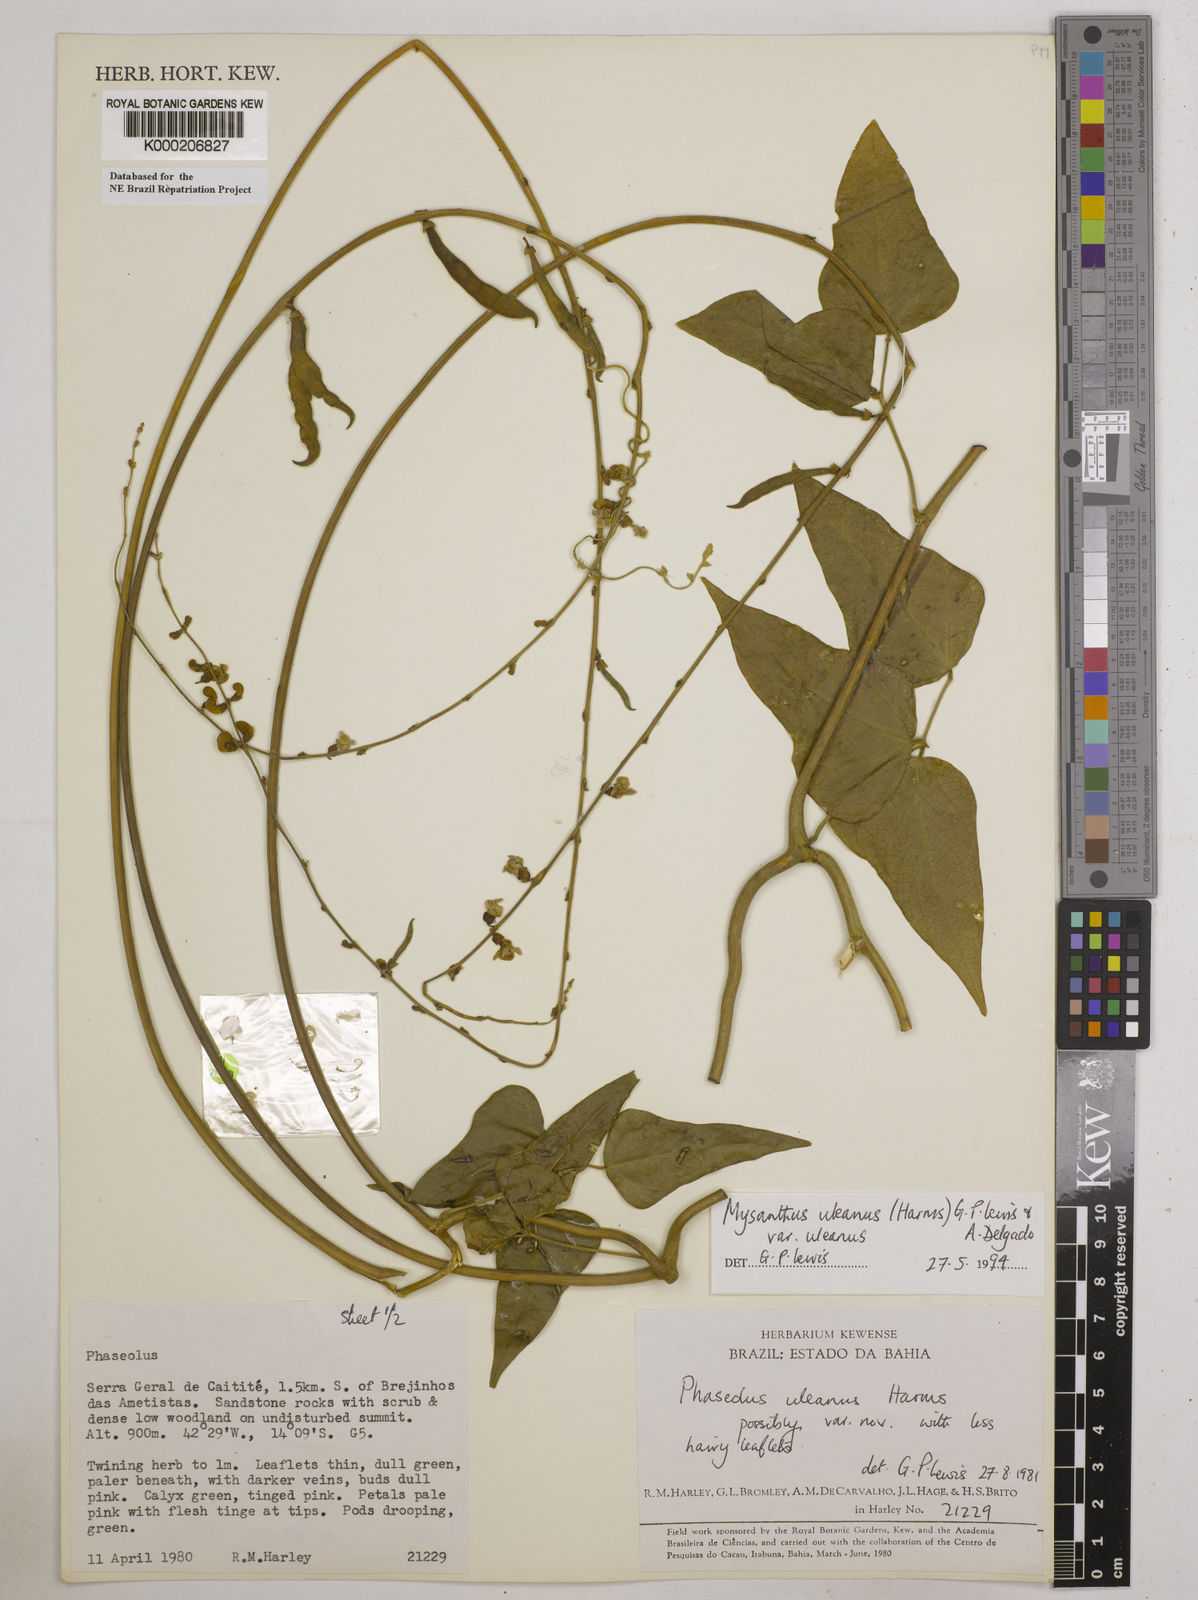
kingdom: Plantae
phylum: Tracheophyta
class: Magnoliopsida
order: Fabales
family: Fabaceae
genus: Mysanthus
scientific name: Mysanthus uleanus
